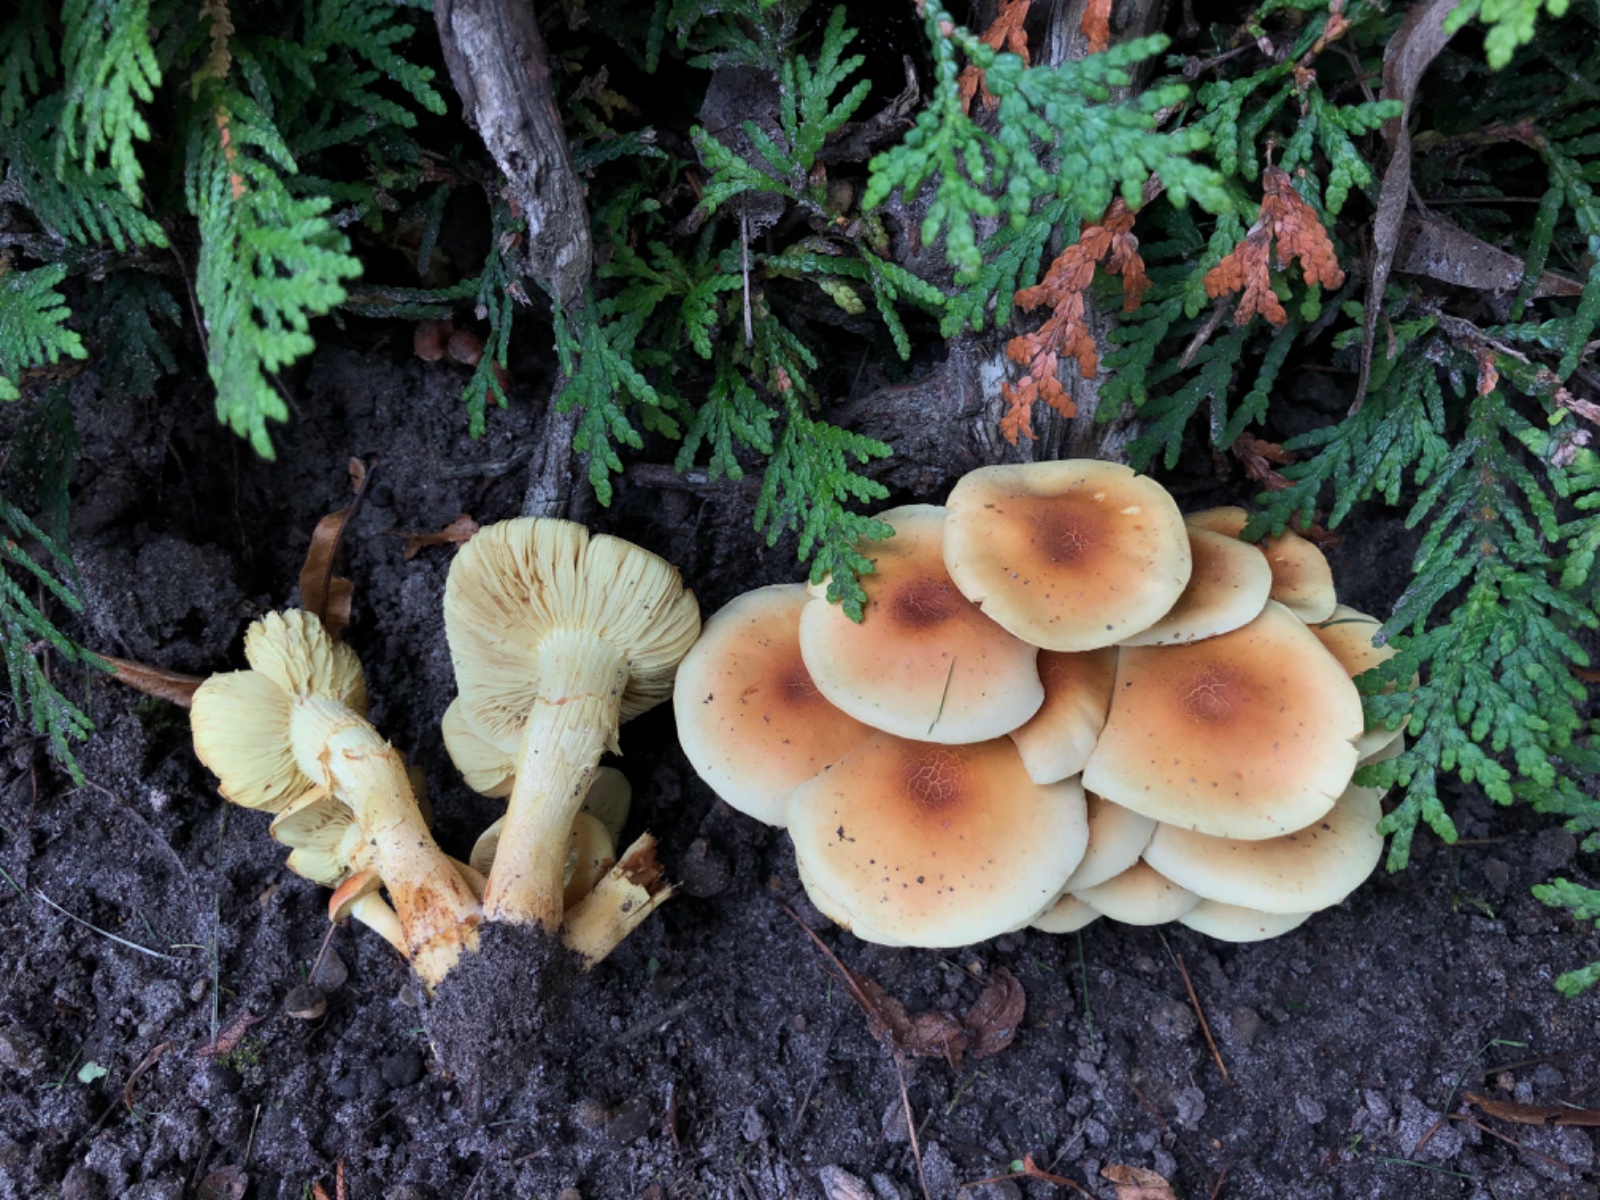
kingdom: Fungi
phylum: Basidiomycota
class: Agaricomycetes
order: Agaricales
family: Strophariaceae
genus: Hypholoma
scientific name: Hypholoma fasciculare
